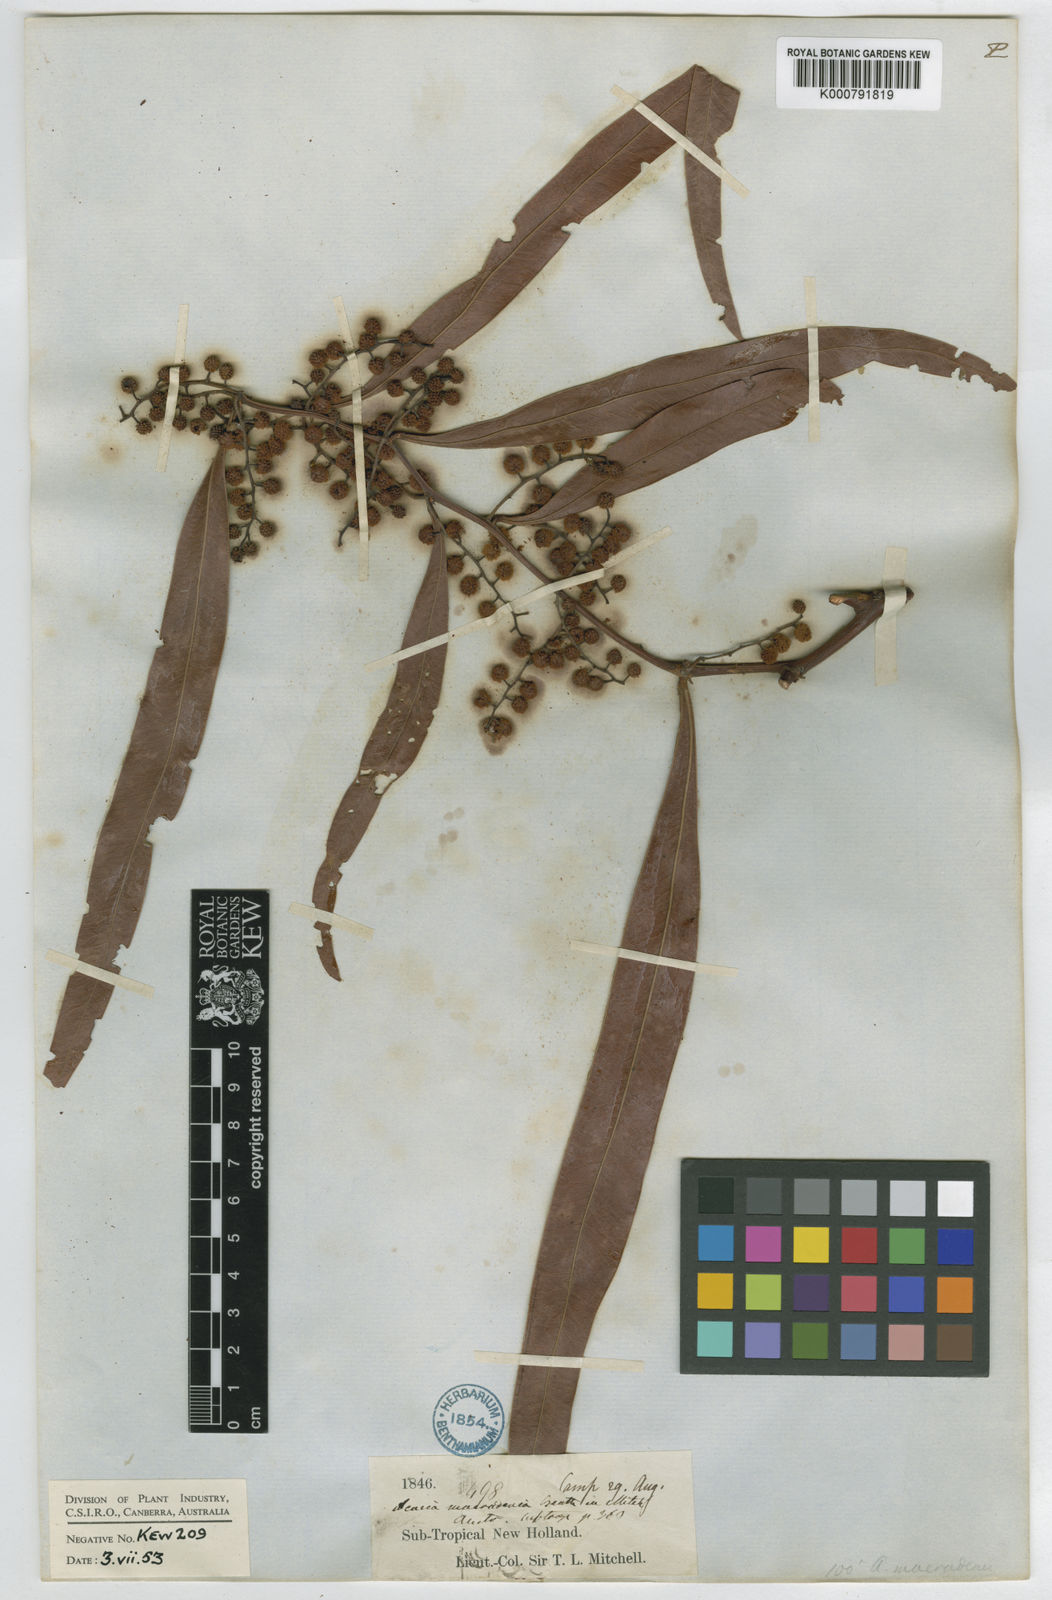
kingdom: Plantae
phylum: Tracheophyta
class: Magnoliopsida
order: Fabales
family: Fabaceae
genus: Acacia
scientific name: Acacia macradenia
